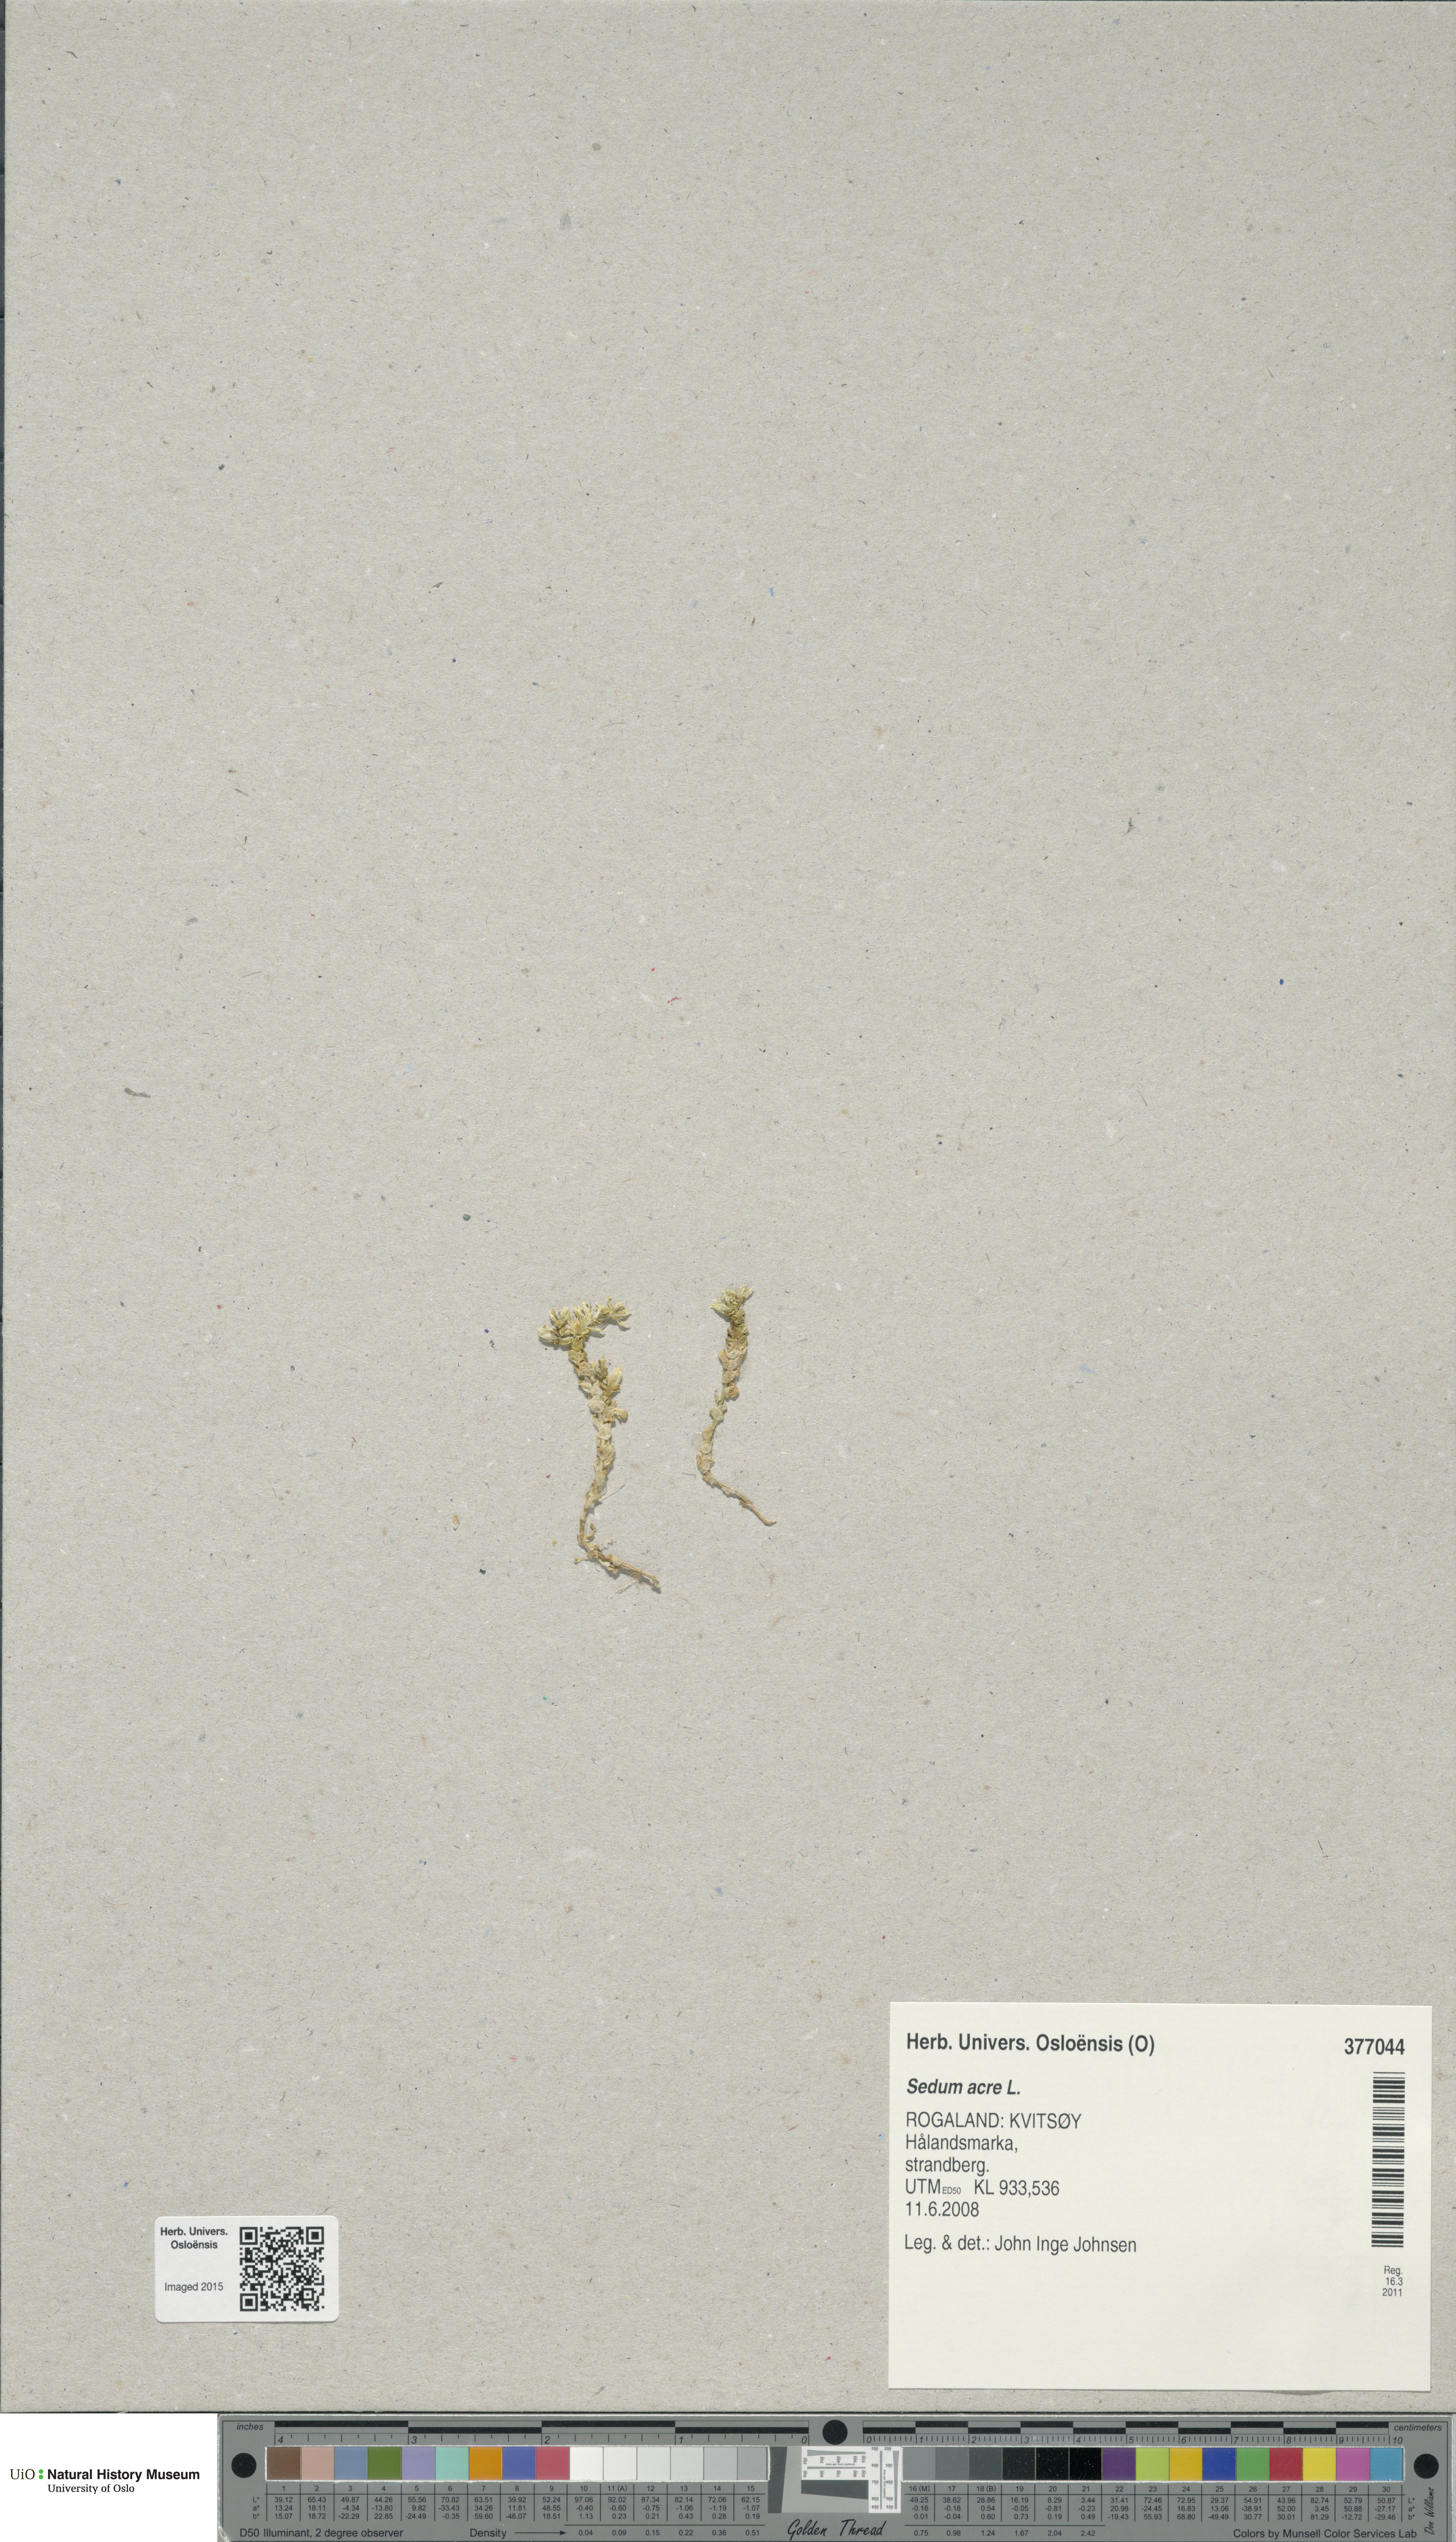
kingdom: Plantae
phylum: Tracheophyta
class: Magnoliopsida
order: Saxifragales
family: Crassulaceae
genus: Sedum
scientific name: Sedum acre
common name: Biting stonecrop
